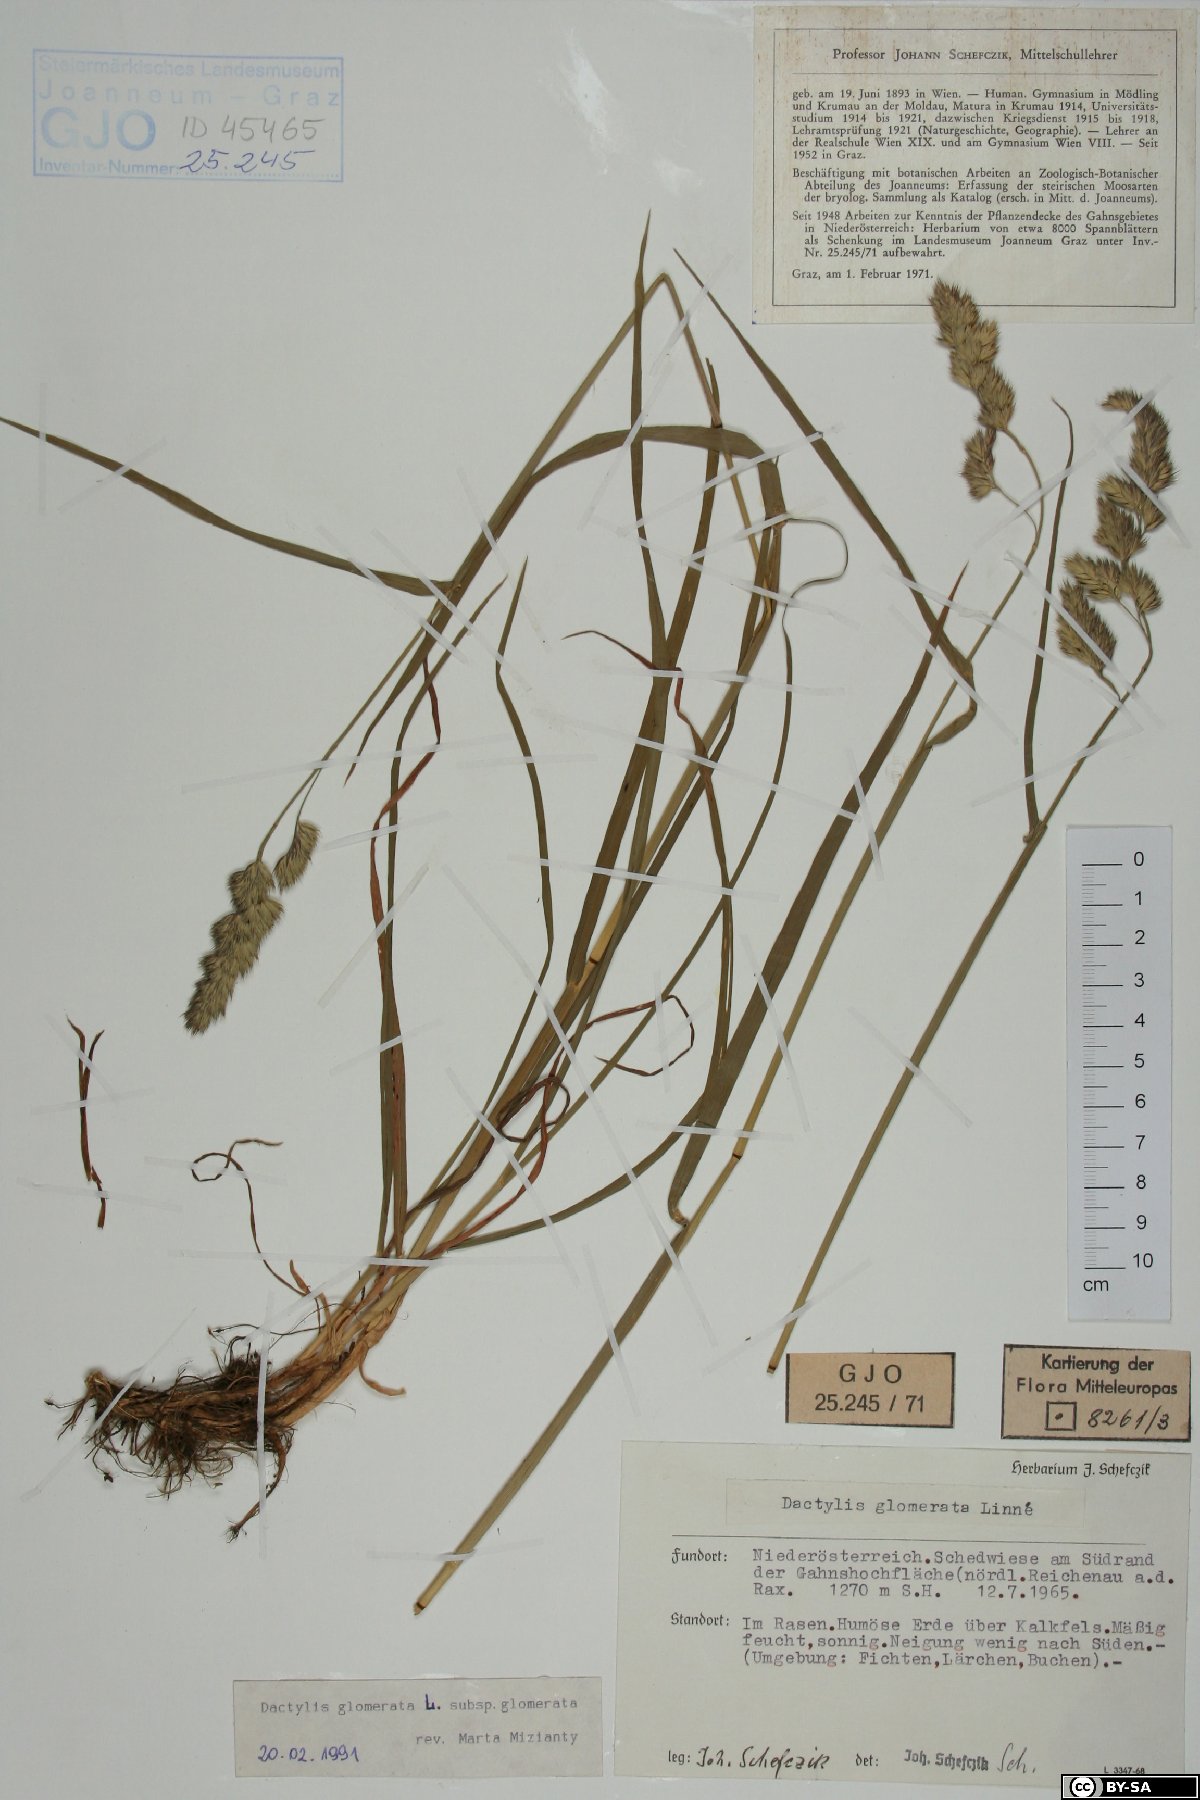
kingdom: Plantae
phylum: Tracheophyta
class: Liliopsida
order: Poales
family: Poaceae
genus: Dactylis
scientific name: Dactylis glomerata
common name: Orchardgrass
